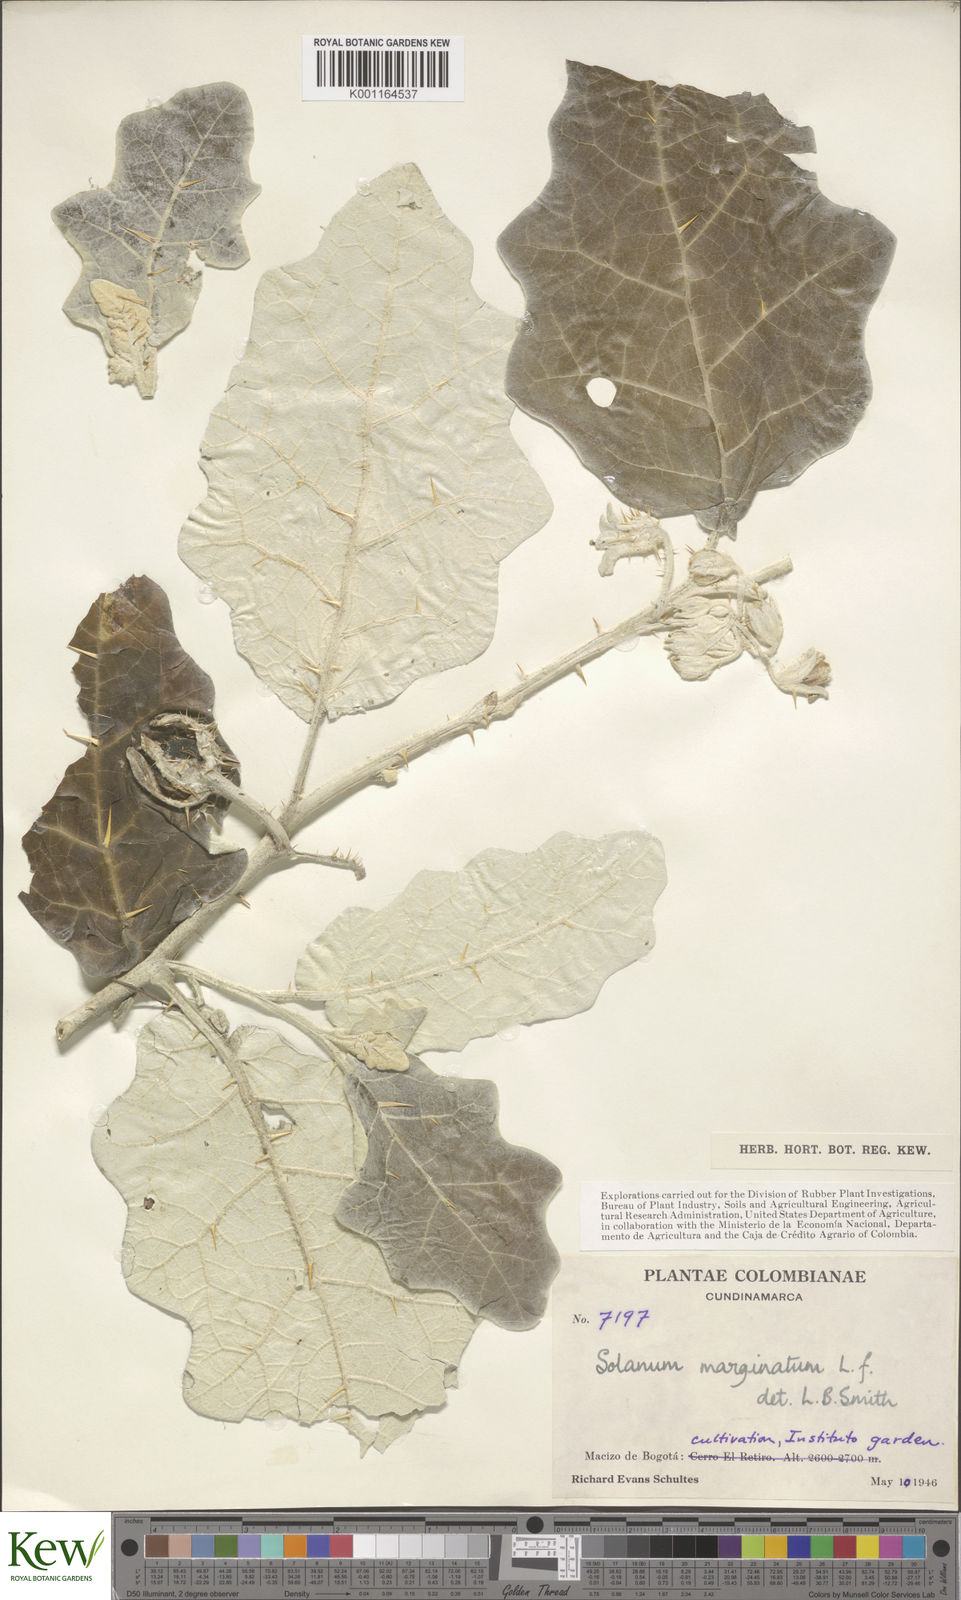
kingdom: Plantae
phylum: Tracheophyta
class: Magnoliopsida
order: Solanales
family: Solanaceae
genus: Solanum
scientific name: Solanum marginatum
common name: Purple african nightshade
